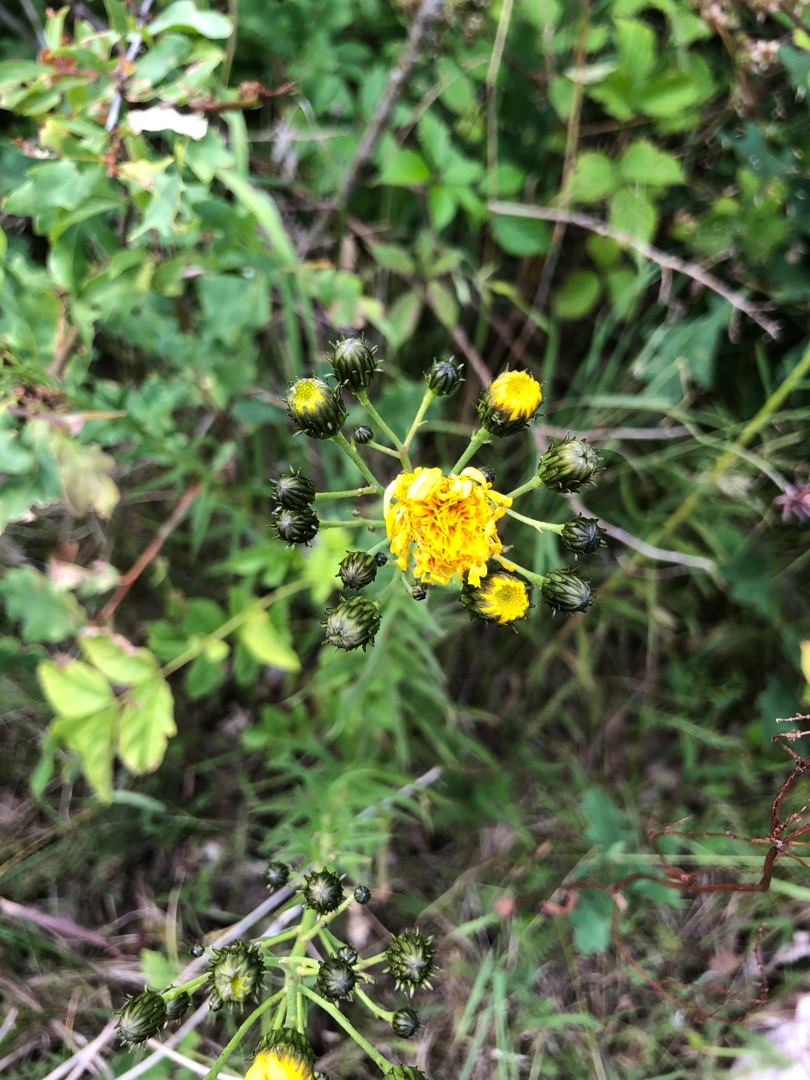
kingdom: Plantae
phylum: Tracheophyta
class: Magnoliopsida
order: Asterales
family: Asteraceae
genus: Hieracium
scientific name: Hieracium umbellatum
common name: Smalbladet høgeurt
